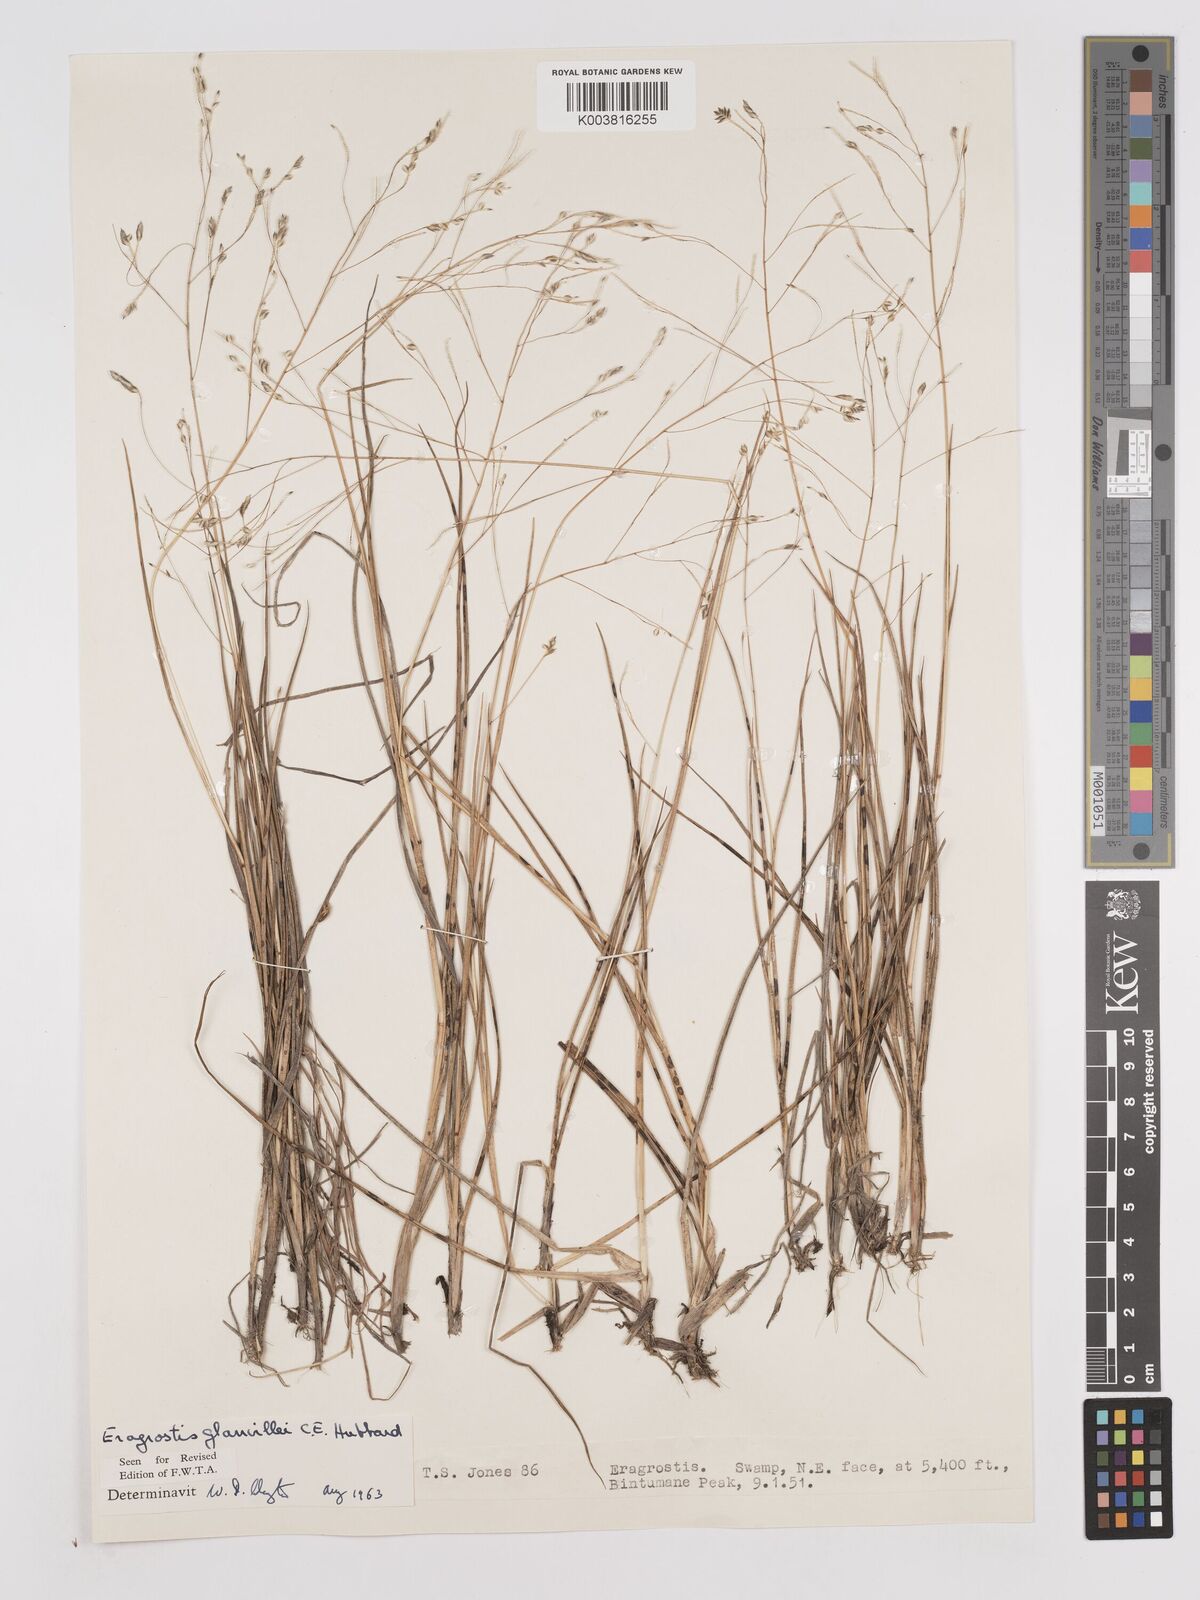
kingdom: Plantae
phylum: Tracheophyta
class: Liliopsida
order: Poales
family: Poaceae
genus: Eragrostis
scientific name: Eragrostis invalida
